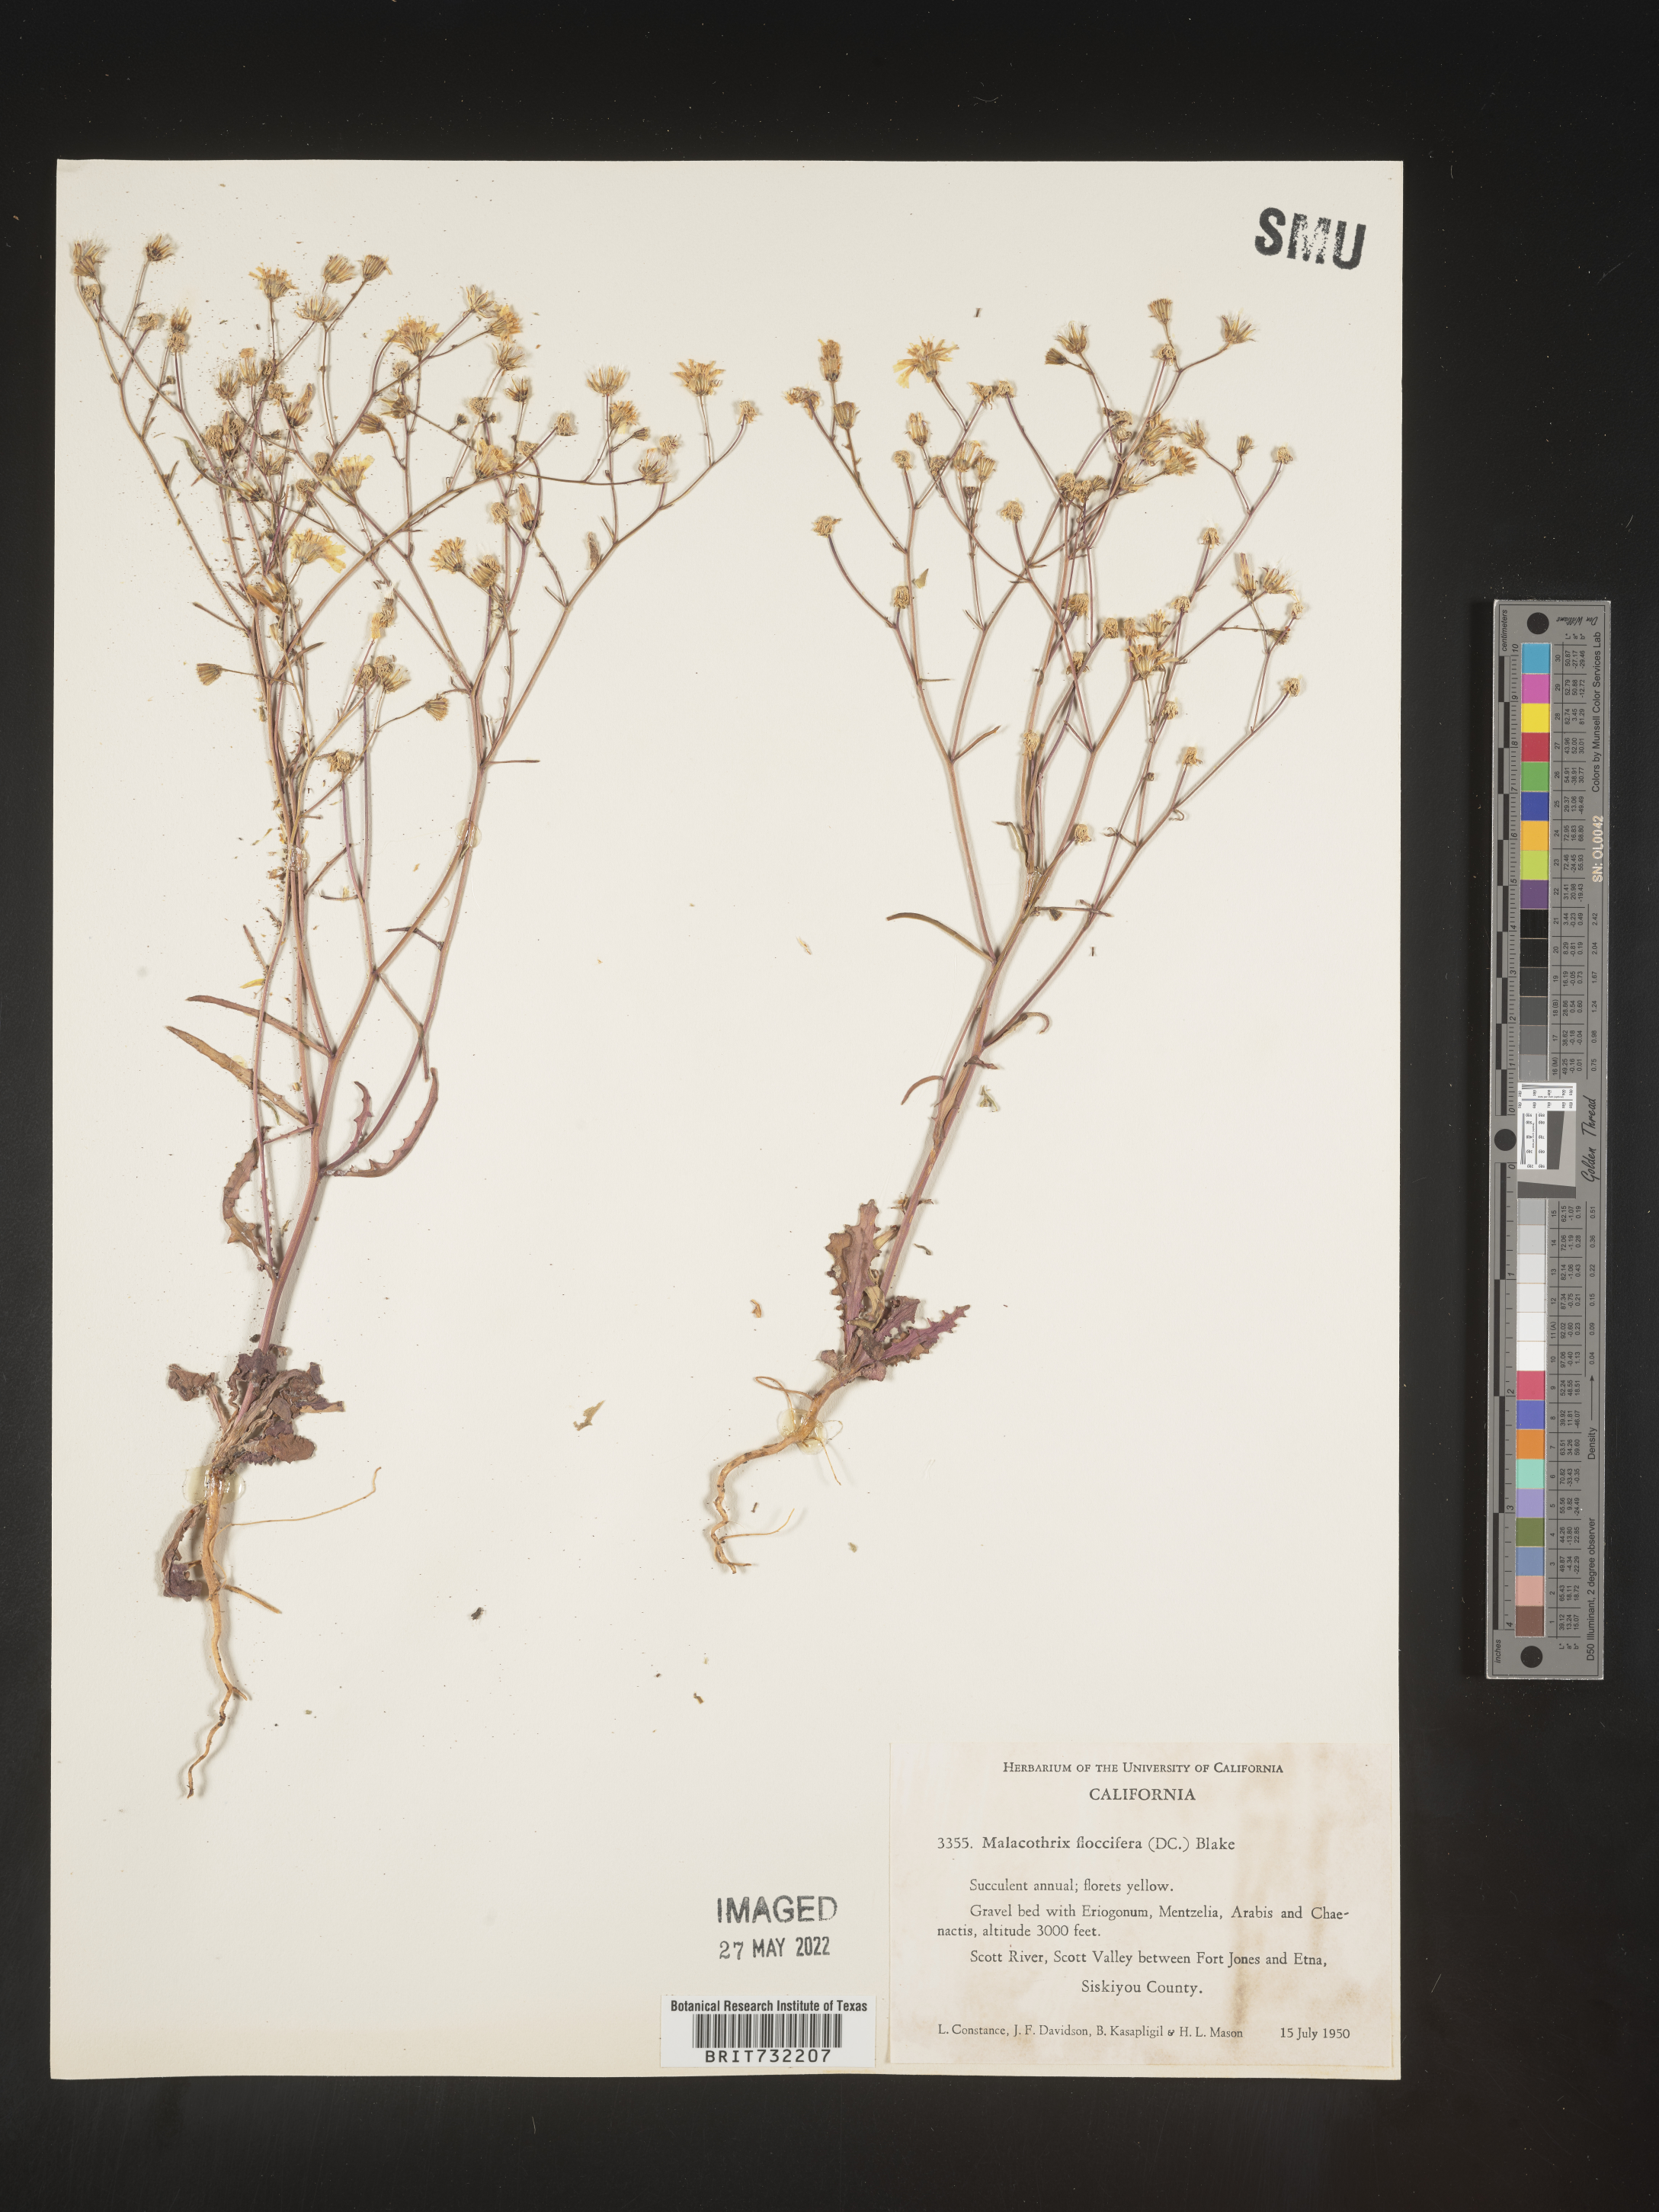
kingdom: Plantae
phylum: Tracheophyta
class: Magnoliopsida
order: Asterales
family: Asteraceae
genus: Malacothrix
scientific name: Malacothrix
